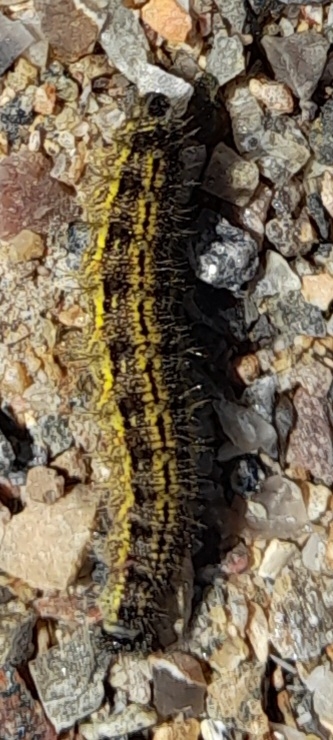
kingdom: Animalia
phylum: Arthropoda
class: Insecta
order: Lepidoptera
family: Nymphalidae
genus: Aglais
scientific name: Aglais urticae
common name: Nældens takvinge
